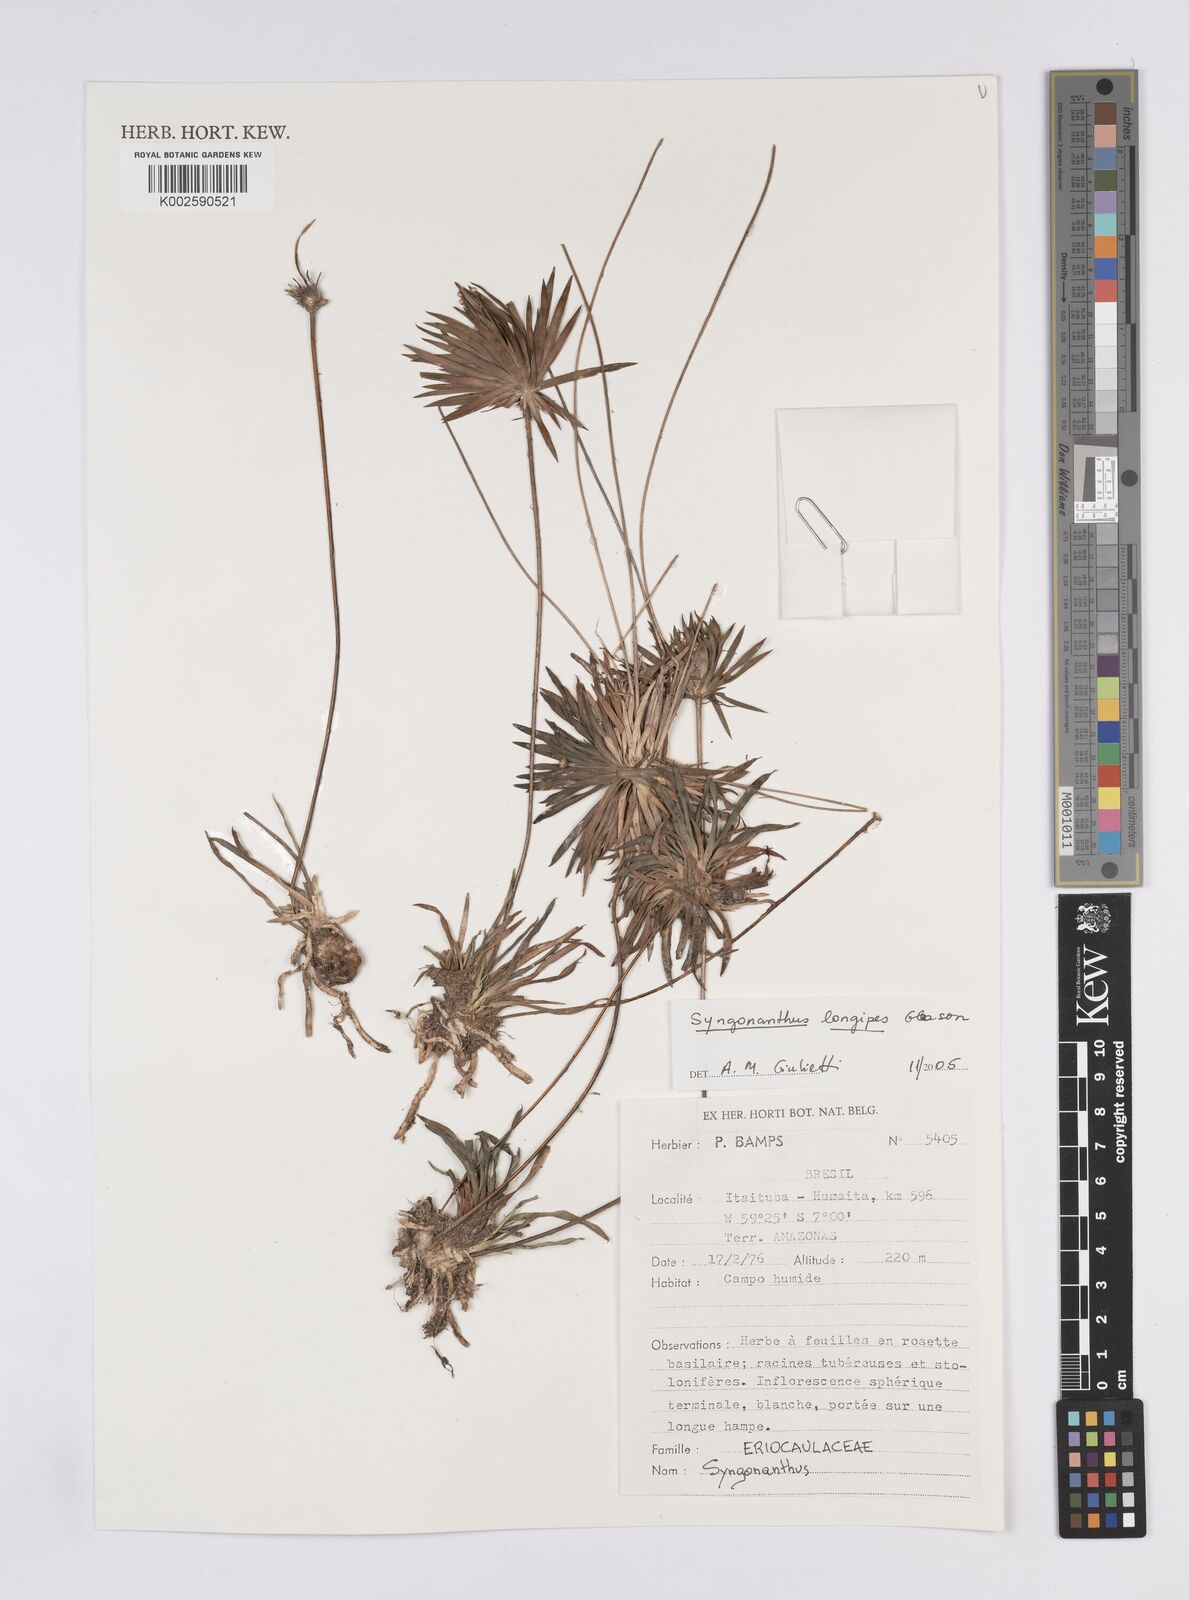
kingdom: Plantae
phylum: Tracheophyta
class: Liliopsida
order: Poales
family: Eriocaulaceae
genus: Syngonanthus
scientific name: Syngonanthus longipes
